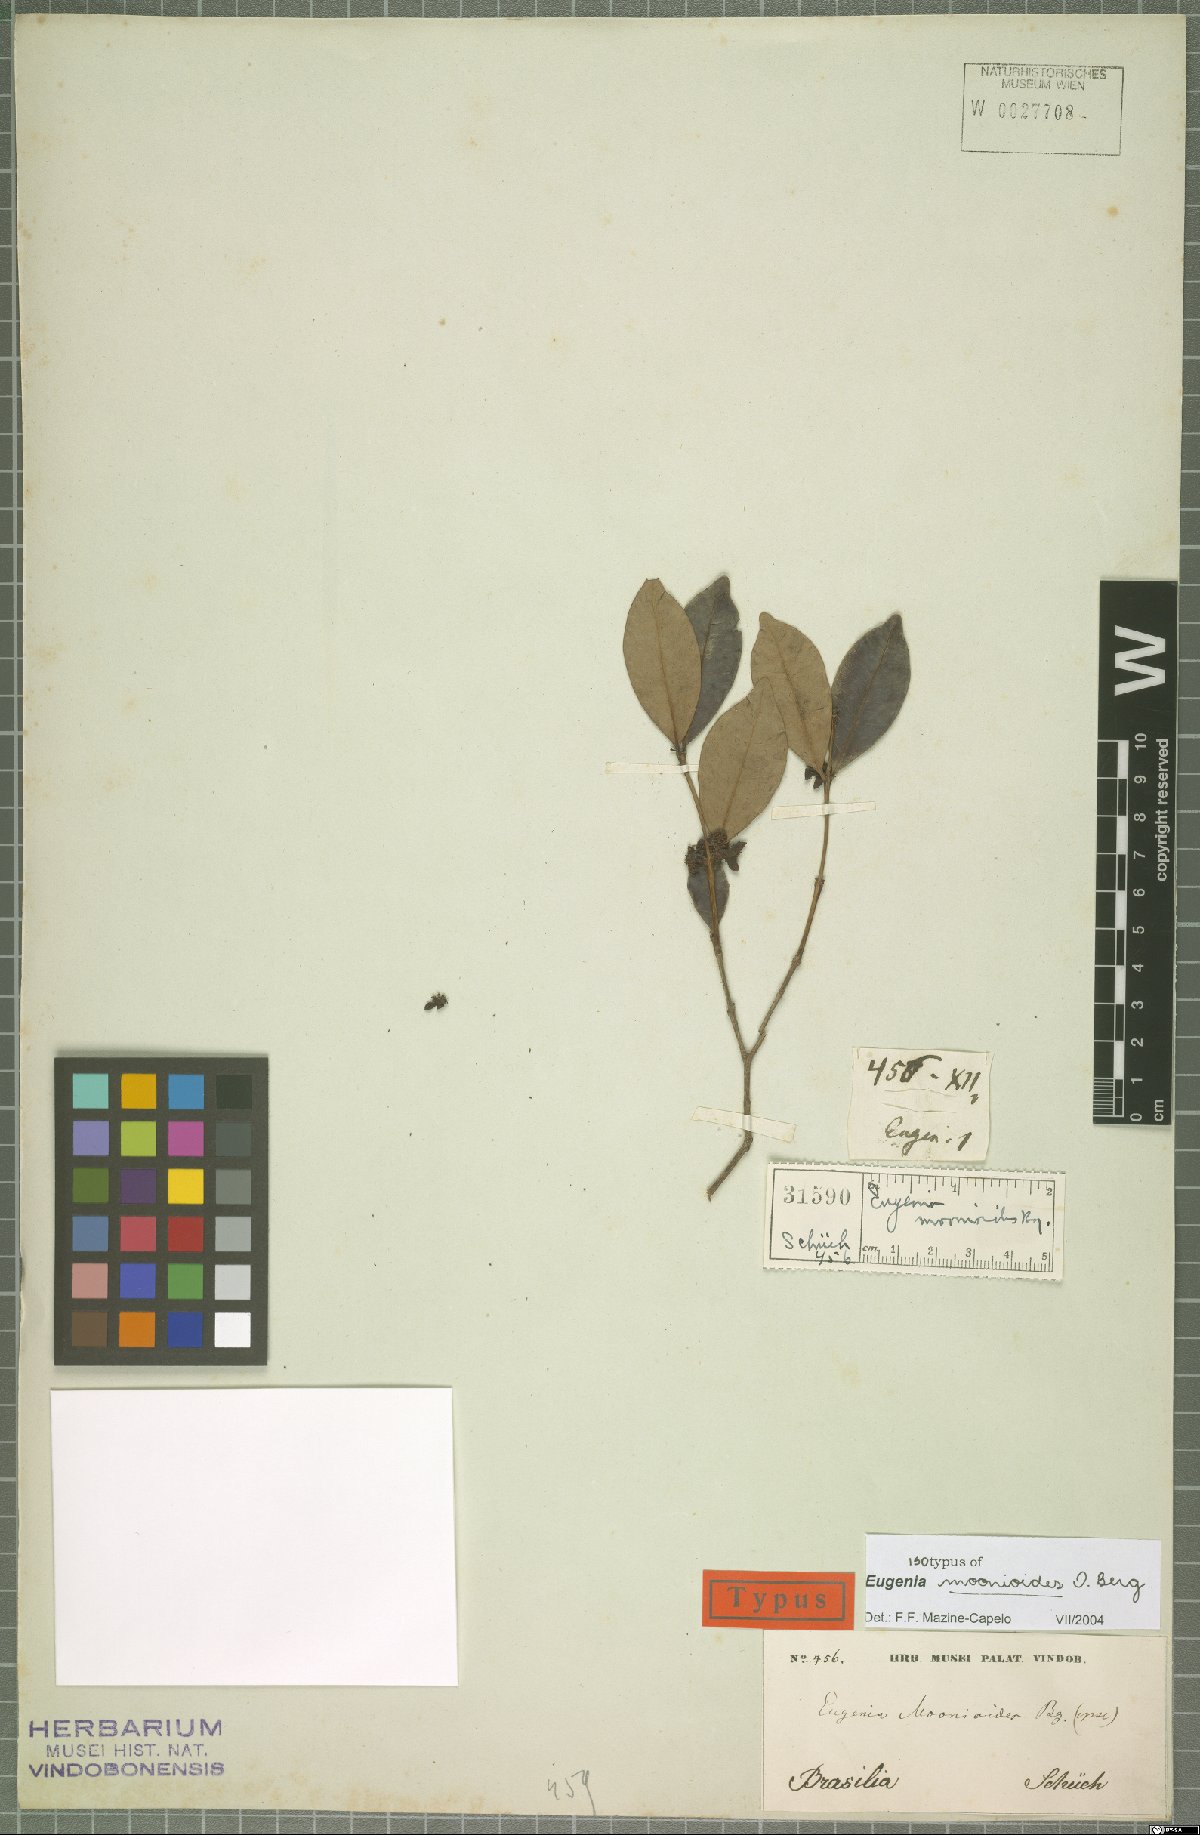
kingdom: Plantae
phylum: Tracheophyta
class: Magnoliopsida
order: Myrtales
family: Myrtaceae
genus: Eugenia
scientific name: Eugenia moonioides
